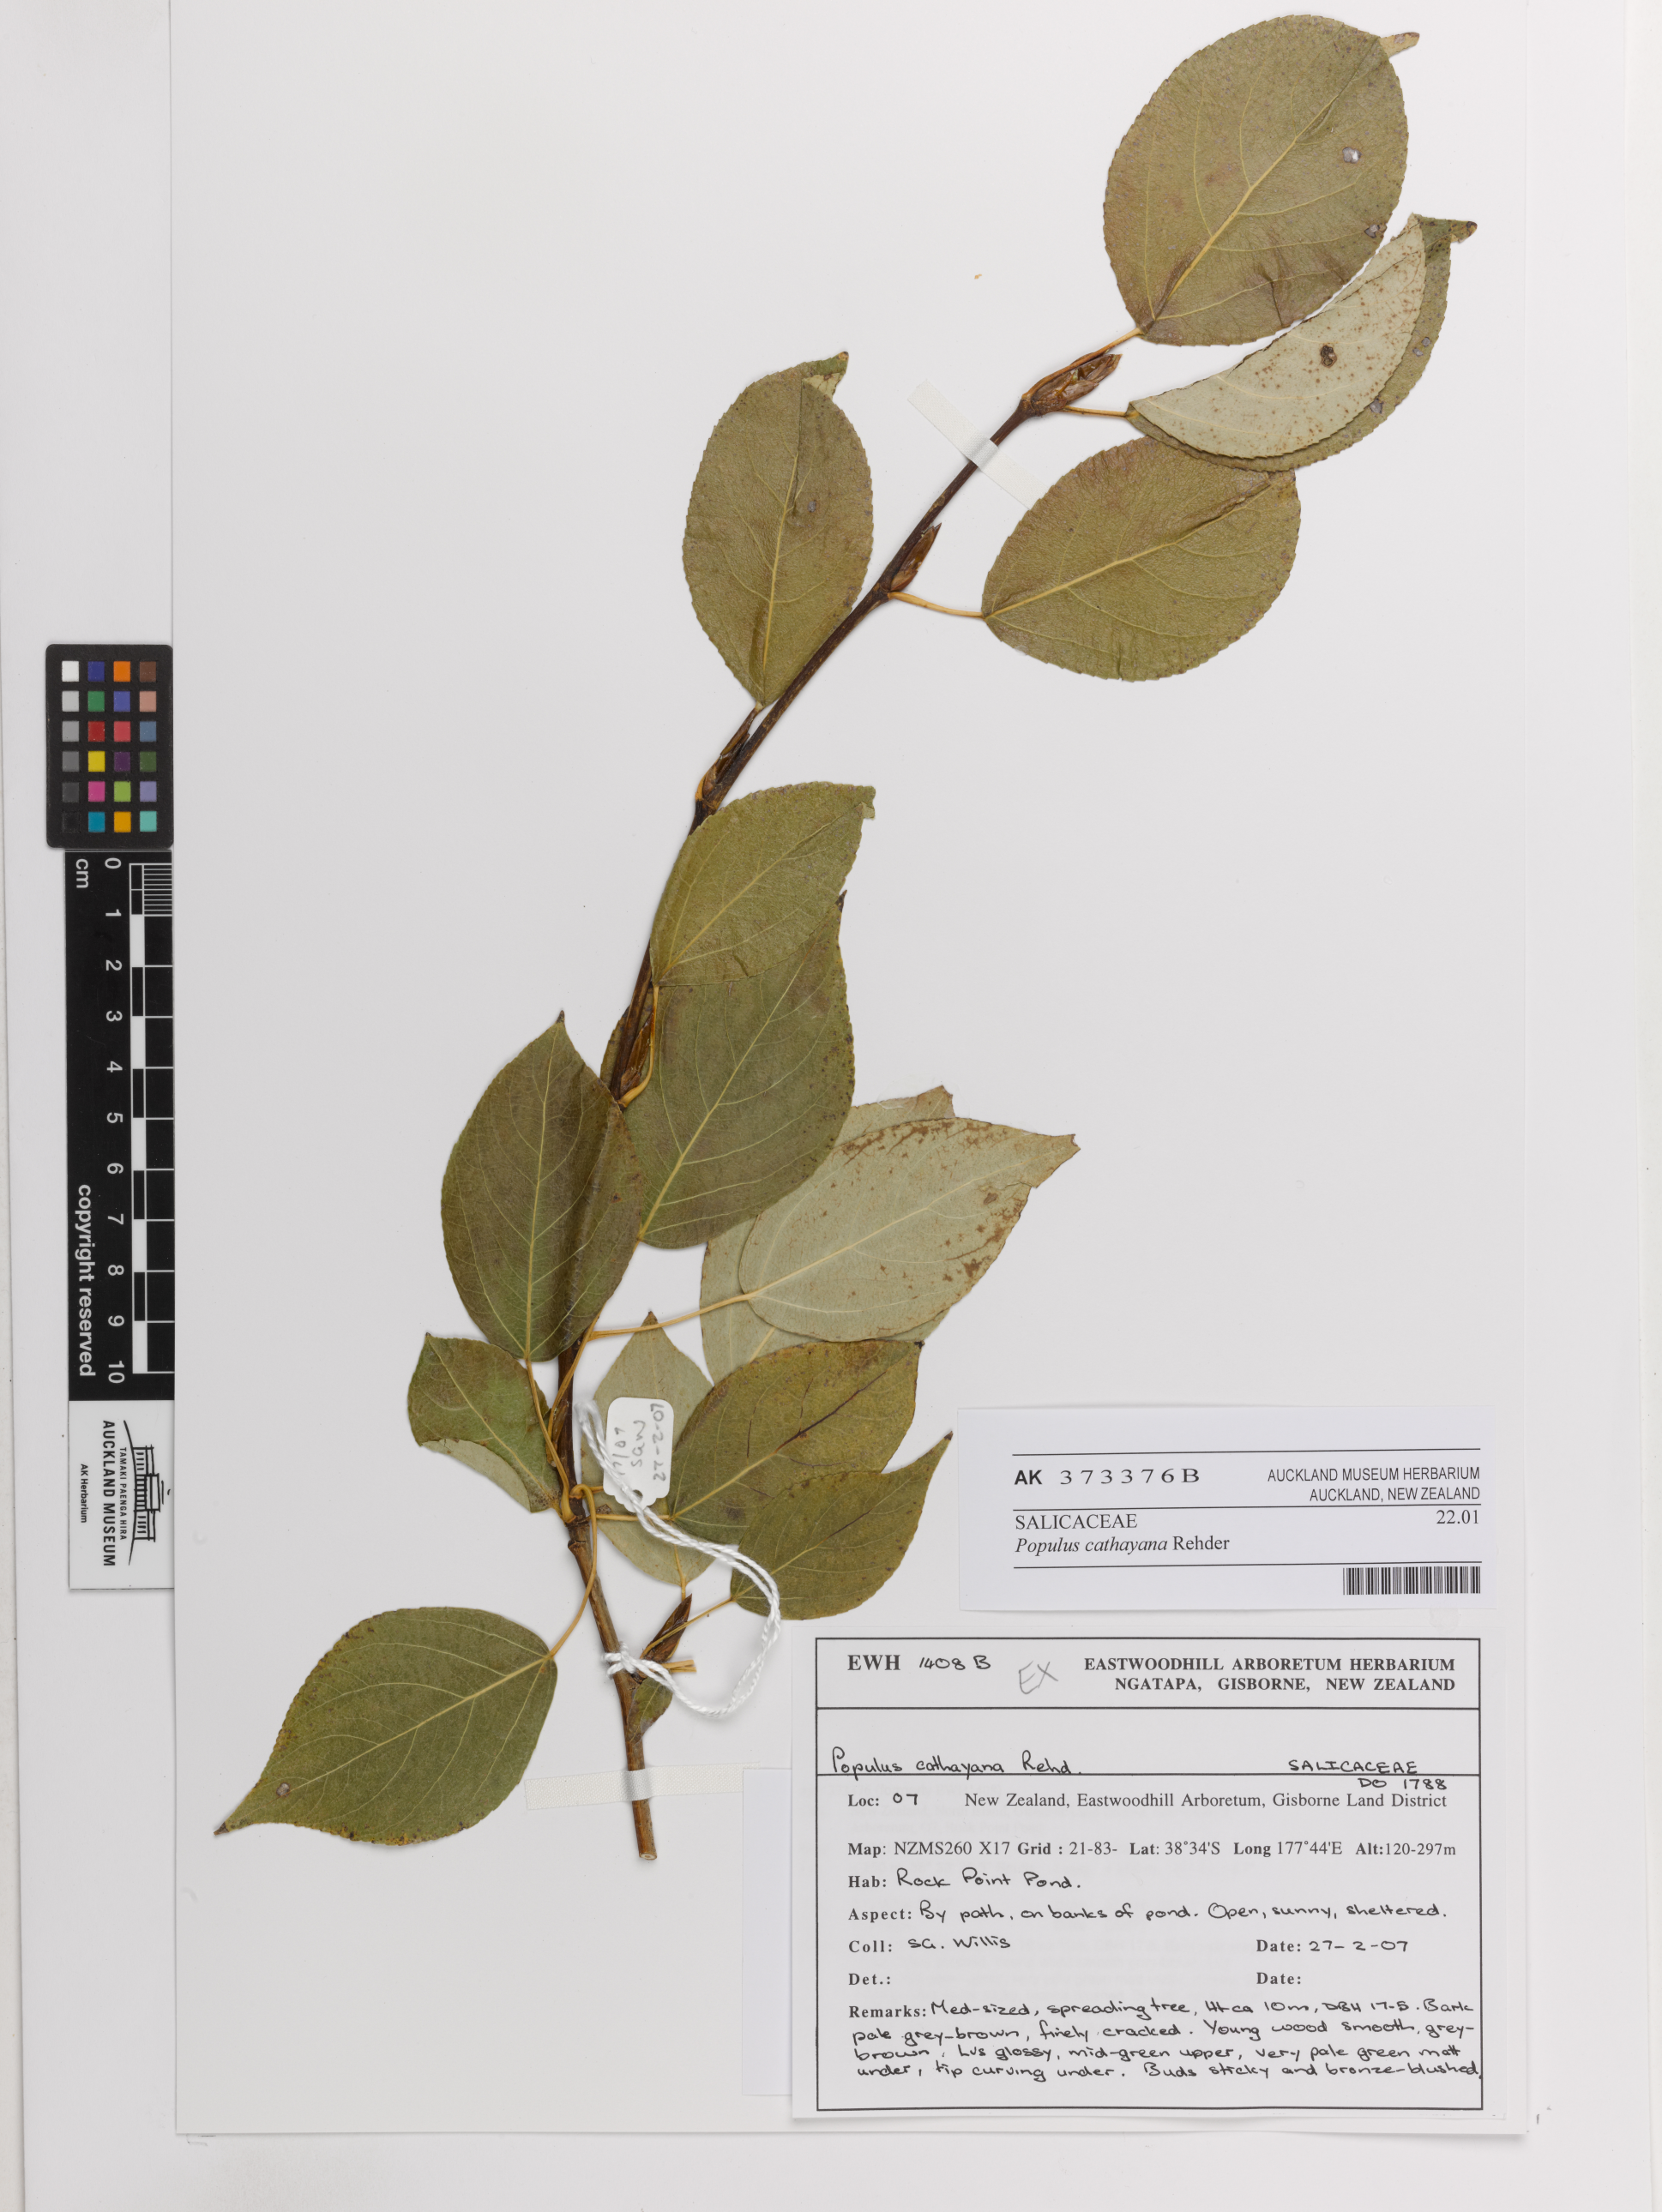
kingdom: Plantae
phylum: Tracheophyta
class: Magnoliopsida
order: Malpighiales
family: Salicaceae
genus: Populus
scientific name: Populus cathayana
